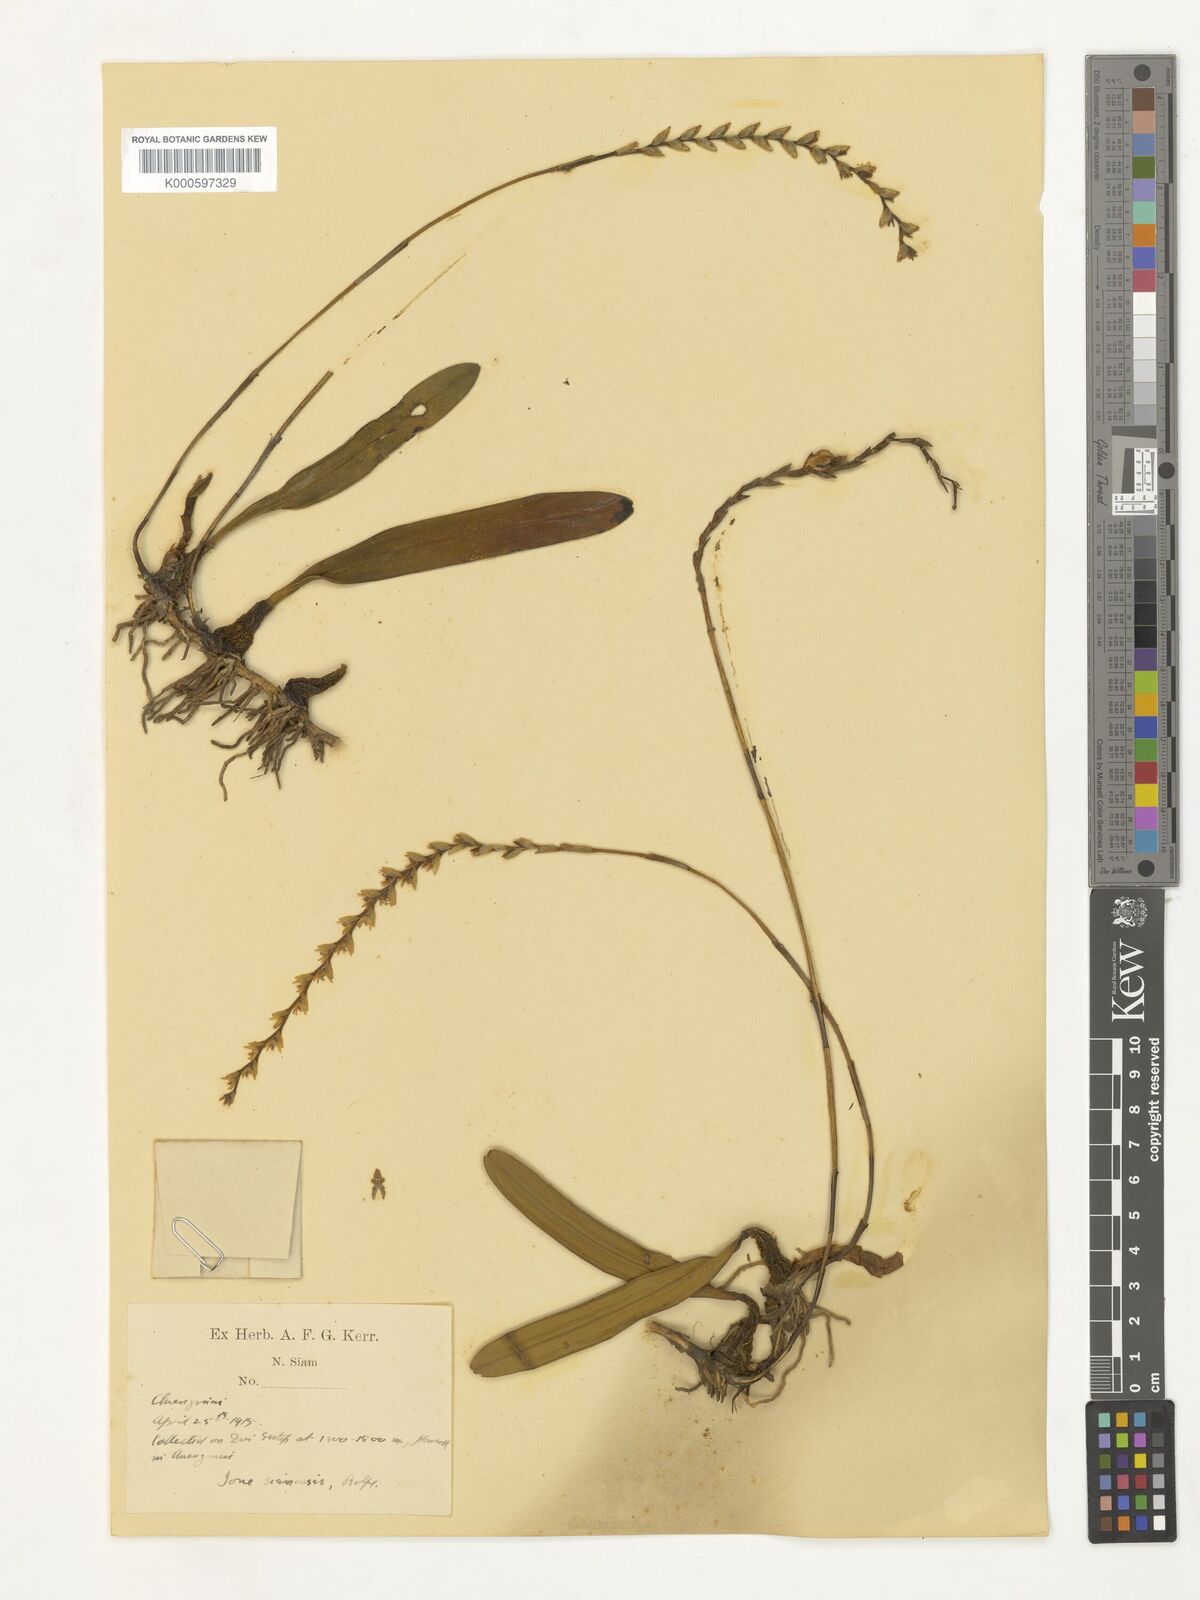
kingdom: Plantae
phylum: Tracheophyta
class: Liliopsida
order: Asparagales
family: Orchidaceae
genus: Bulbophyllum
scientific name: Bulbophyllum reptans
